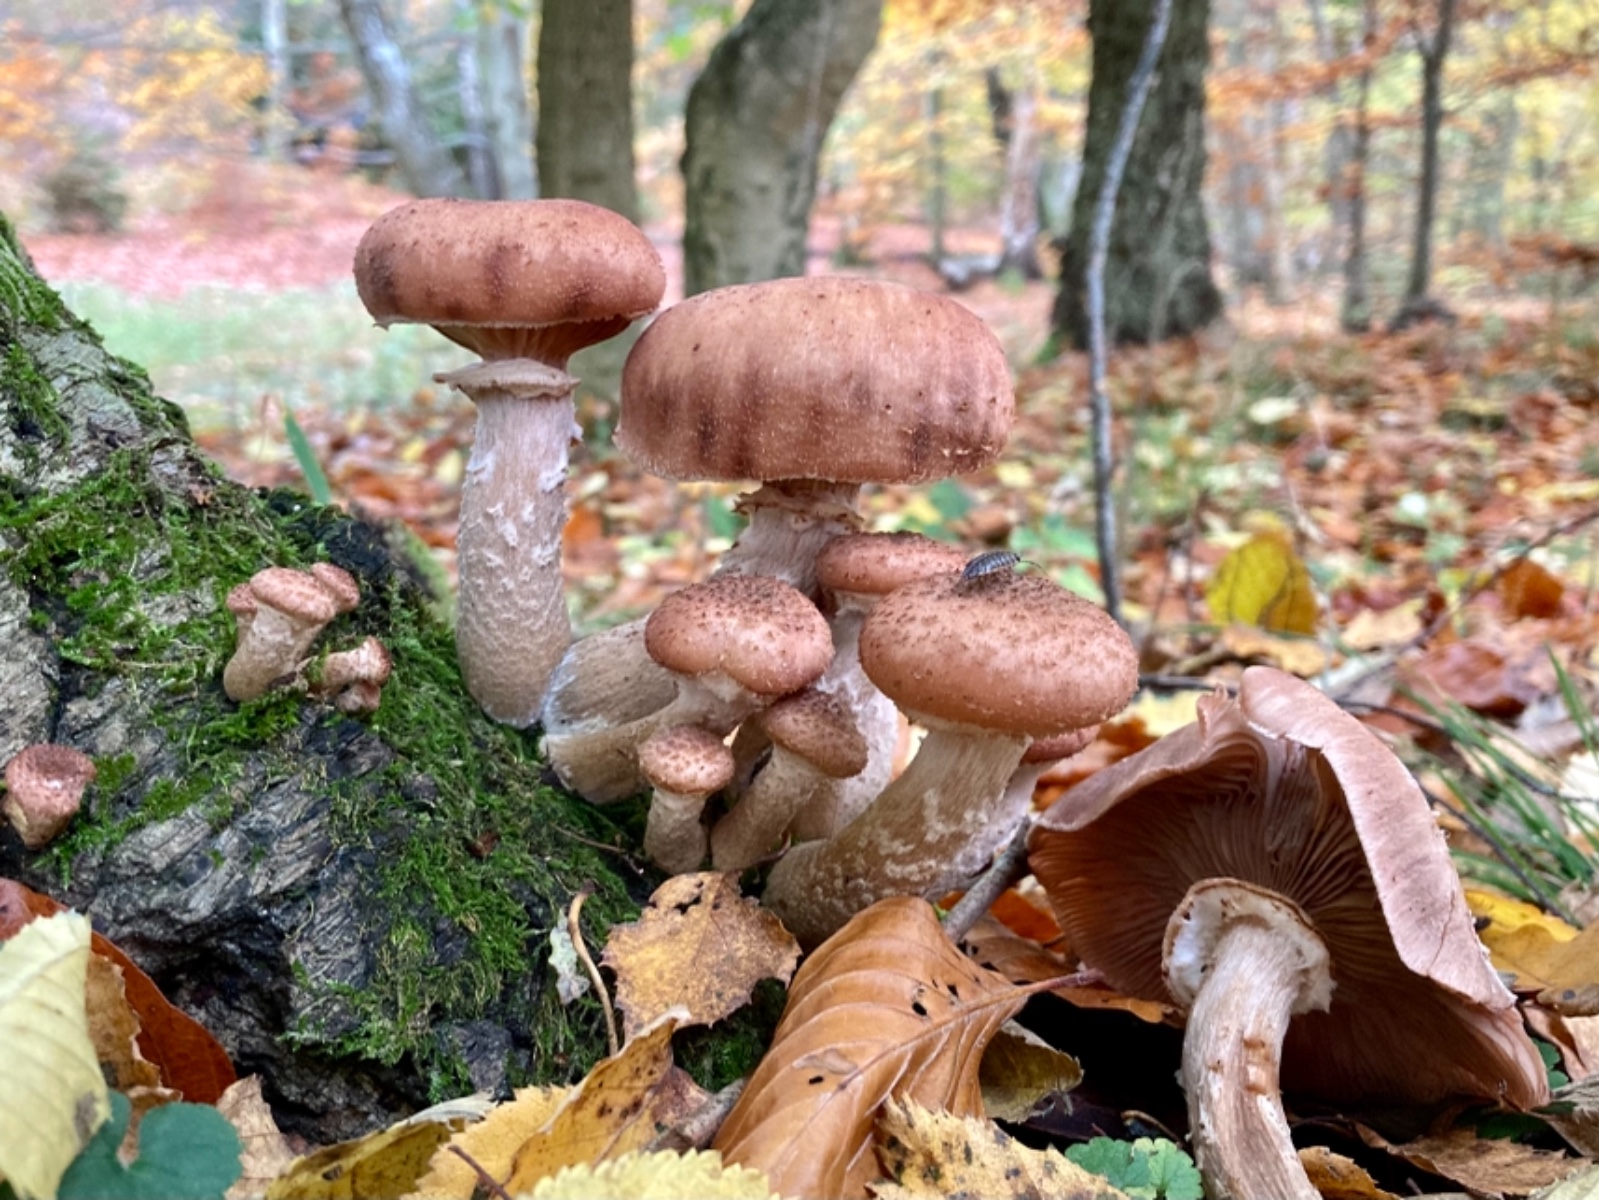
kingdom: Fungi
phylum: Basidiomycota
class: Agaricomycetes
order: Agaricales
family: Physalacriaceae
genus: Armillaria
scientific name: Armillaria ostoyae
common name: mørk honningsvamp
